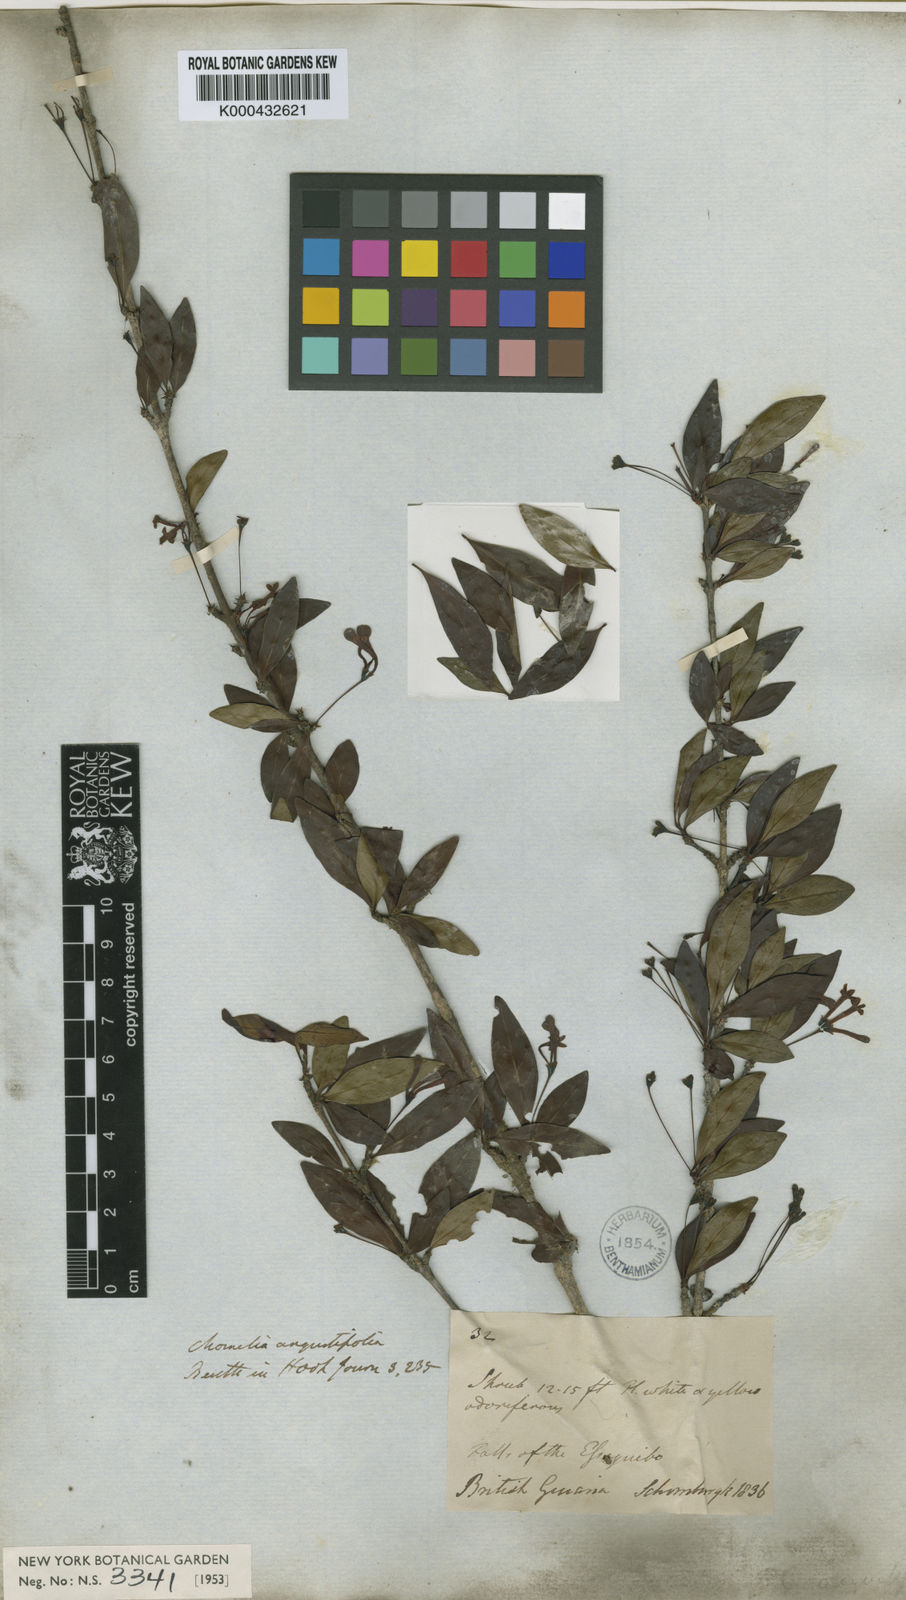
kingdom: Plantae
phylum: Tracheophyta
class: Magnoliopsida
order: Gentianales
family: Rubiaceae
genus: Chomelia
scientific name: Chomelia obtusa
